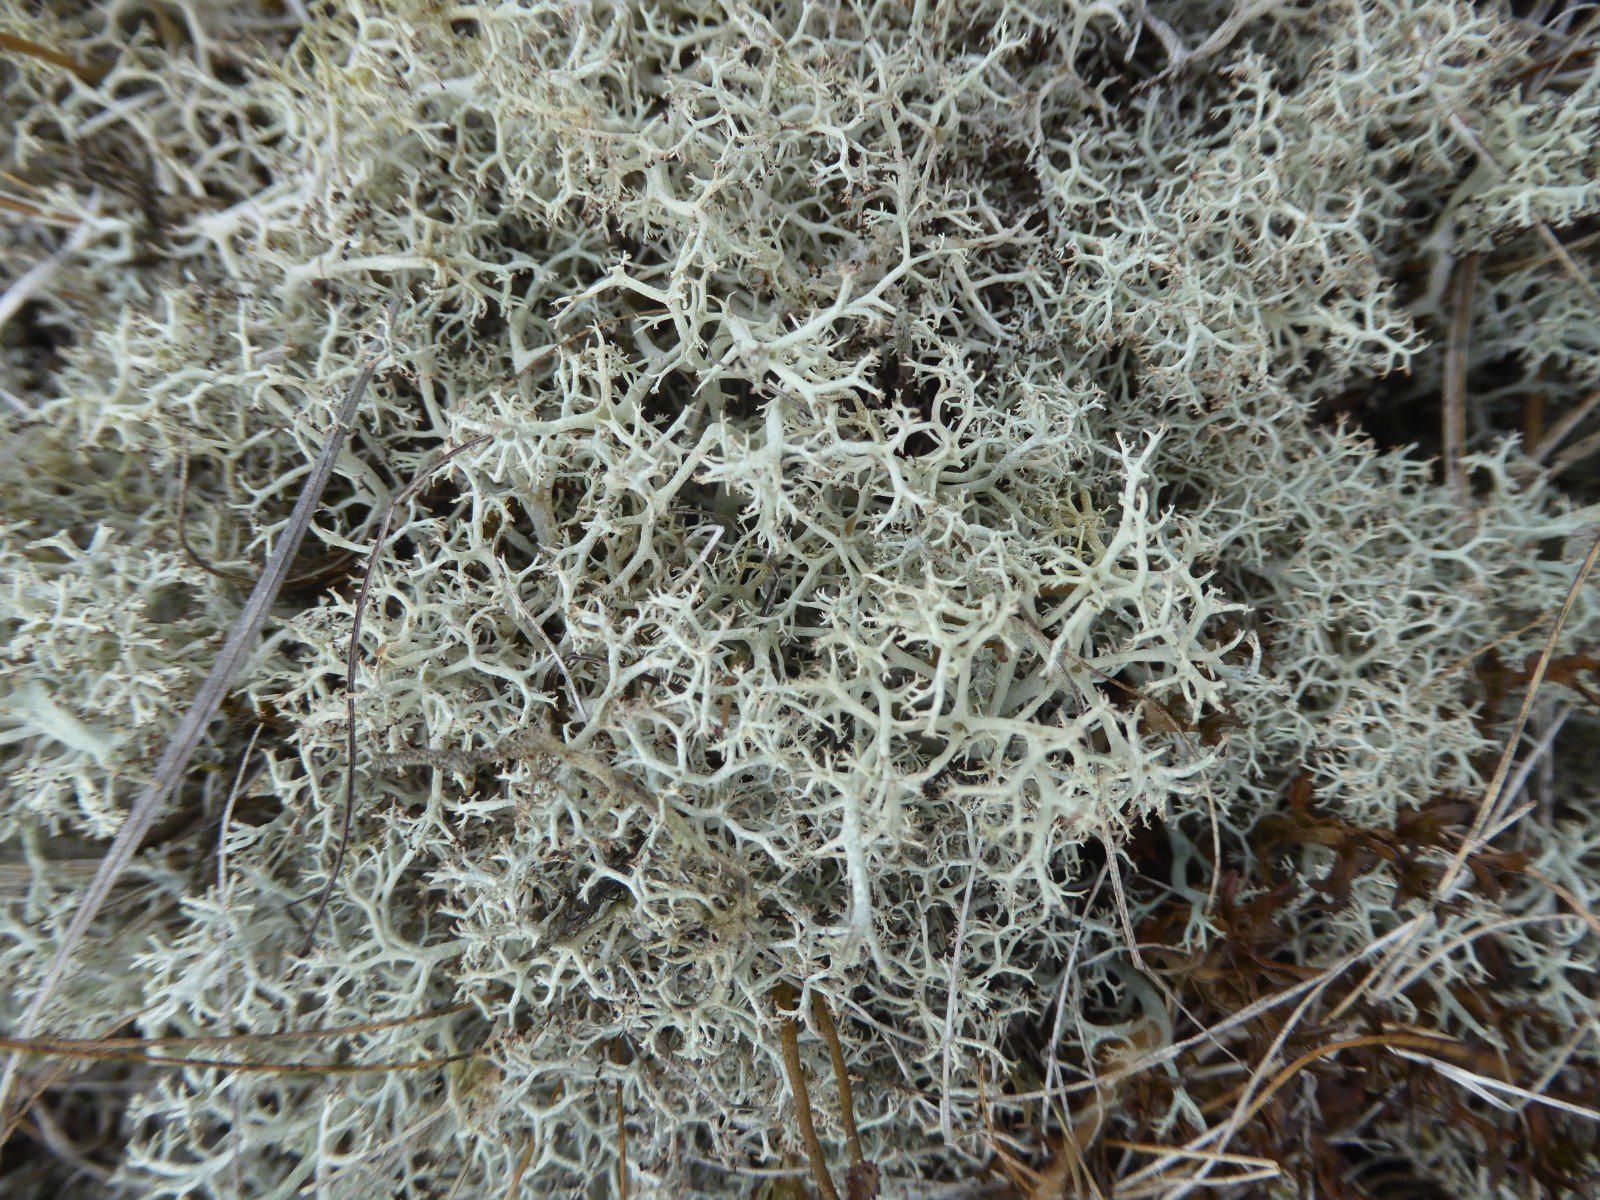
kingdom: Fungi
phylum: Ascomycota
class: Lecanoromycetes
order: Lecanorales
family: Cladoniaceae
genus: Cladonia
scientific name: Cladonia portentosa
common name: hede-rensdyrlav
